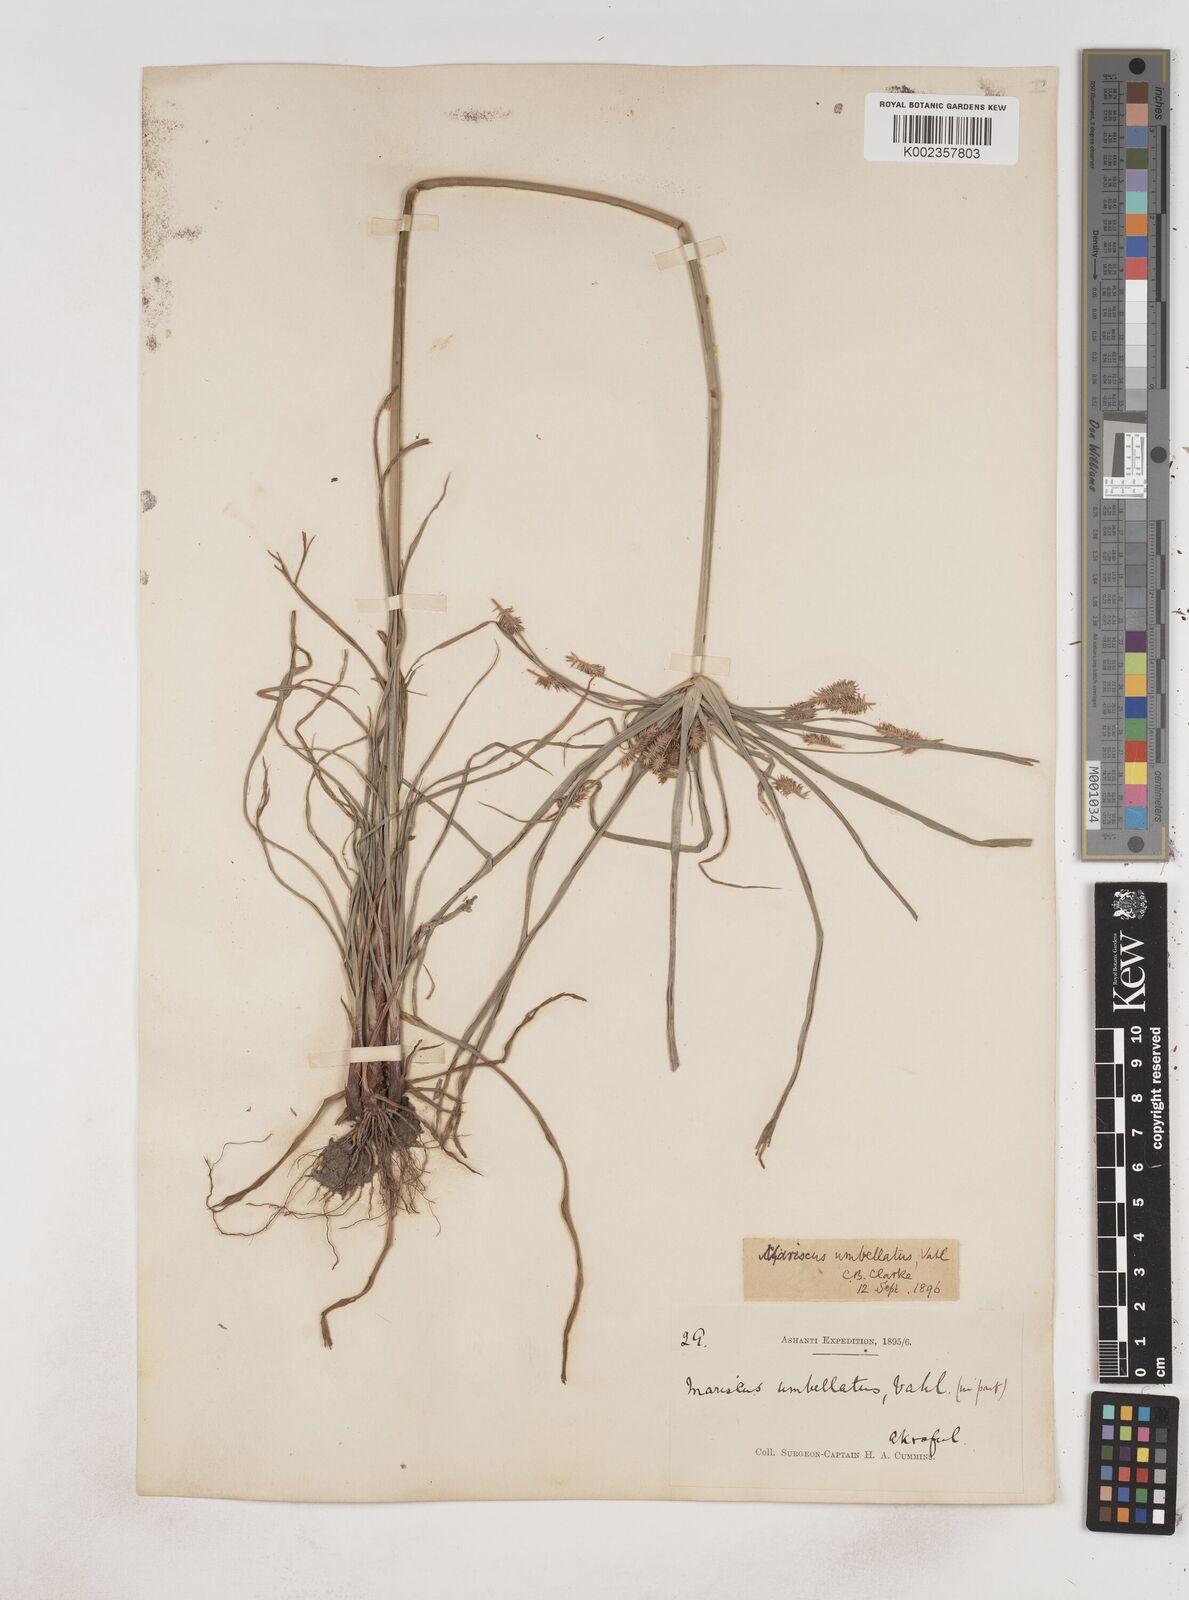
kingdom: Plantae
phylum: Tracheophyta
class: Liliopsida
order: Poales
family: Cyperaceae
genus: Cyperus
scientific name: Cyperus sublimis
